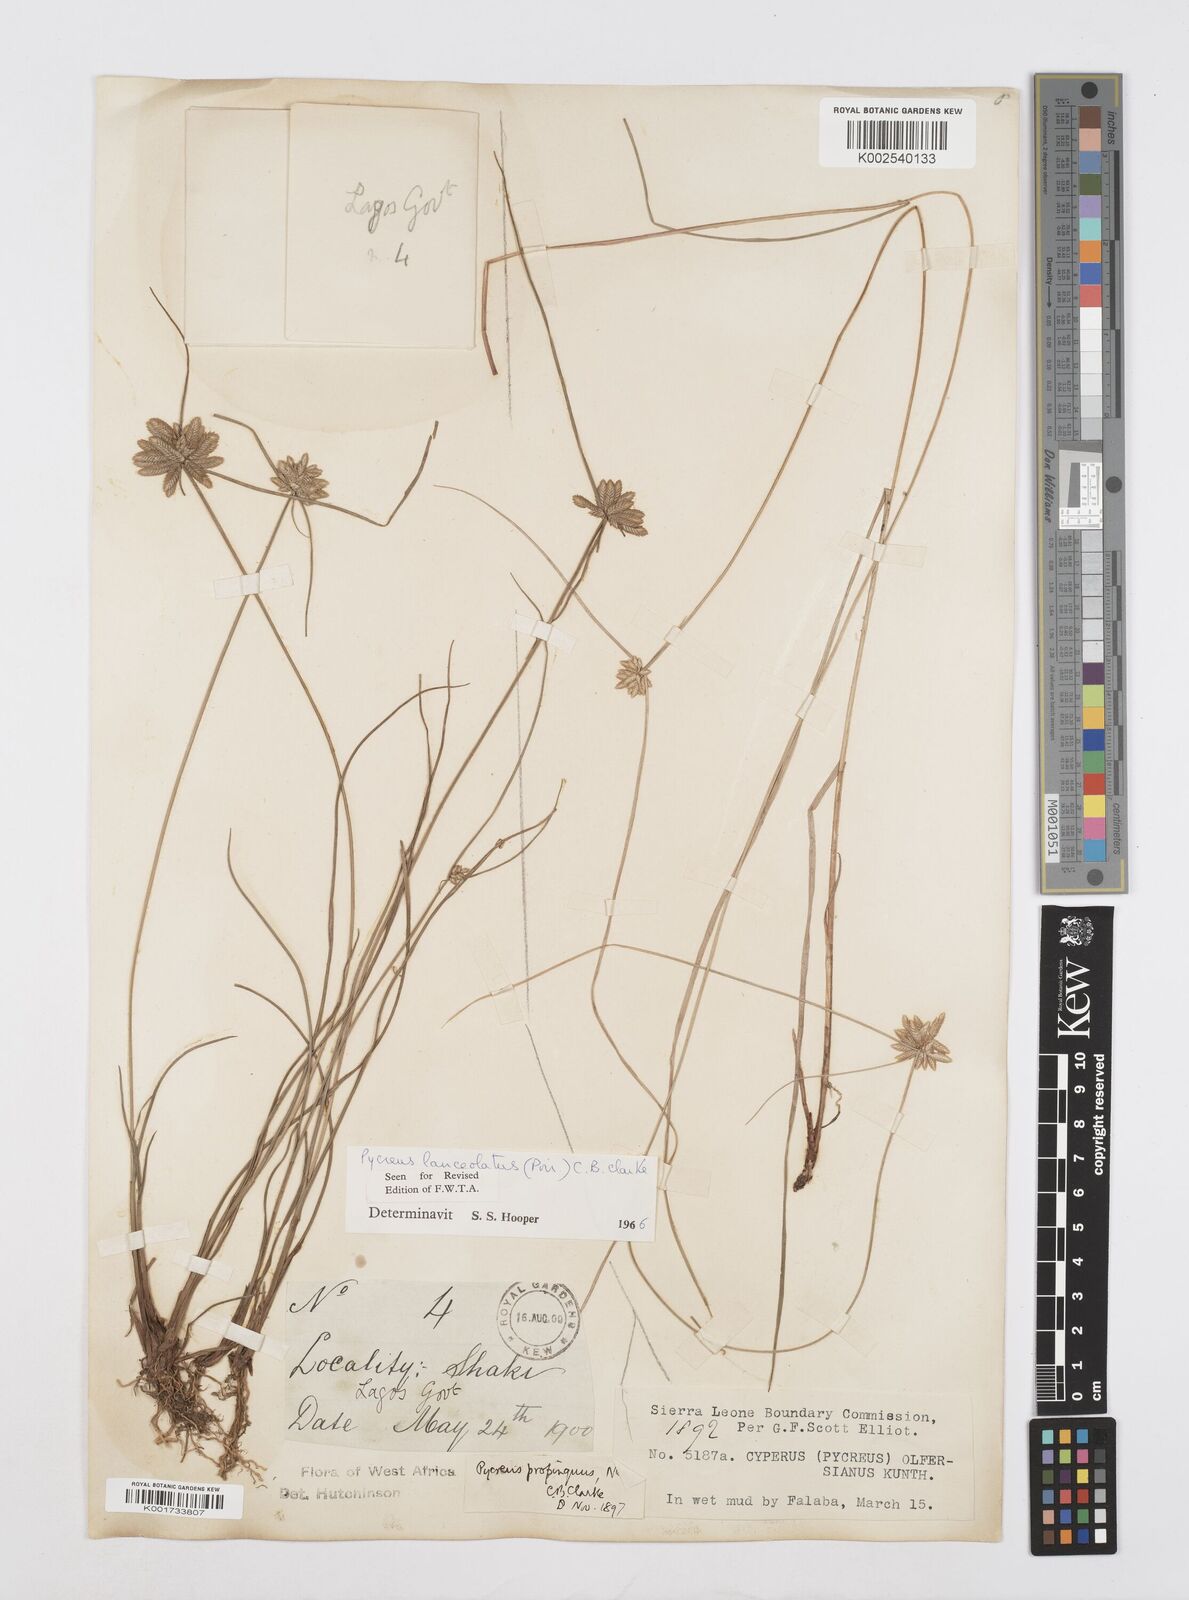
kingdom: Plantae
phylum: Tracheophyta
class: Liliopsida
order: Poales
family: Cyperaceae
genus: Cyperus
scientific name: Cyperus
